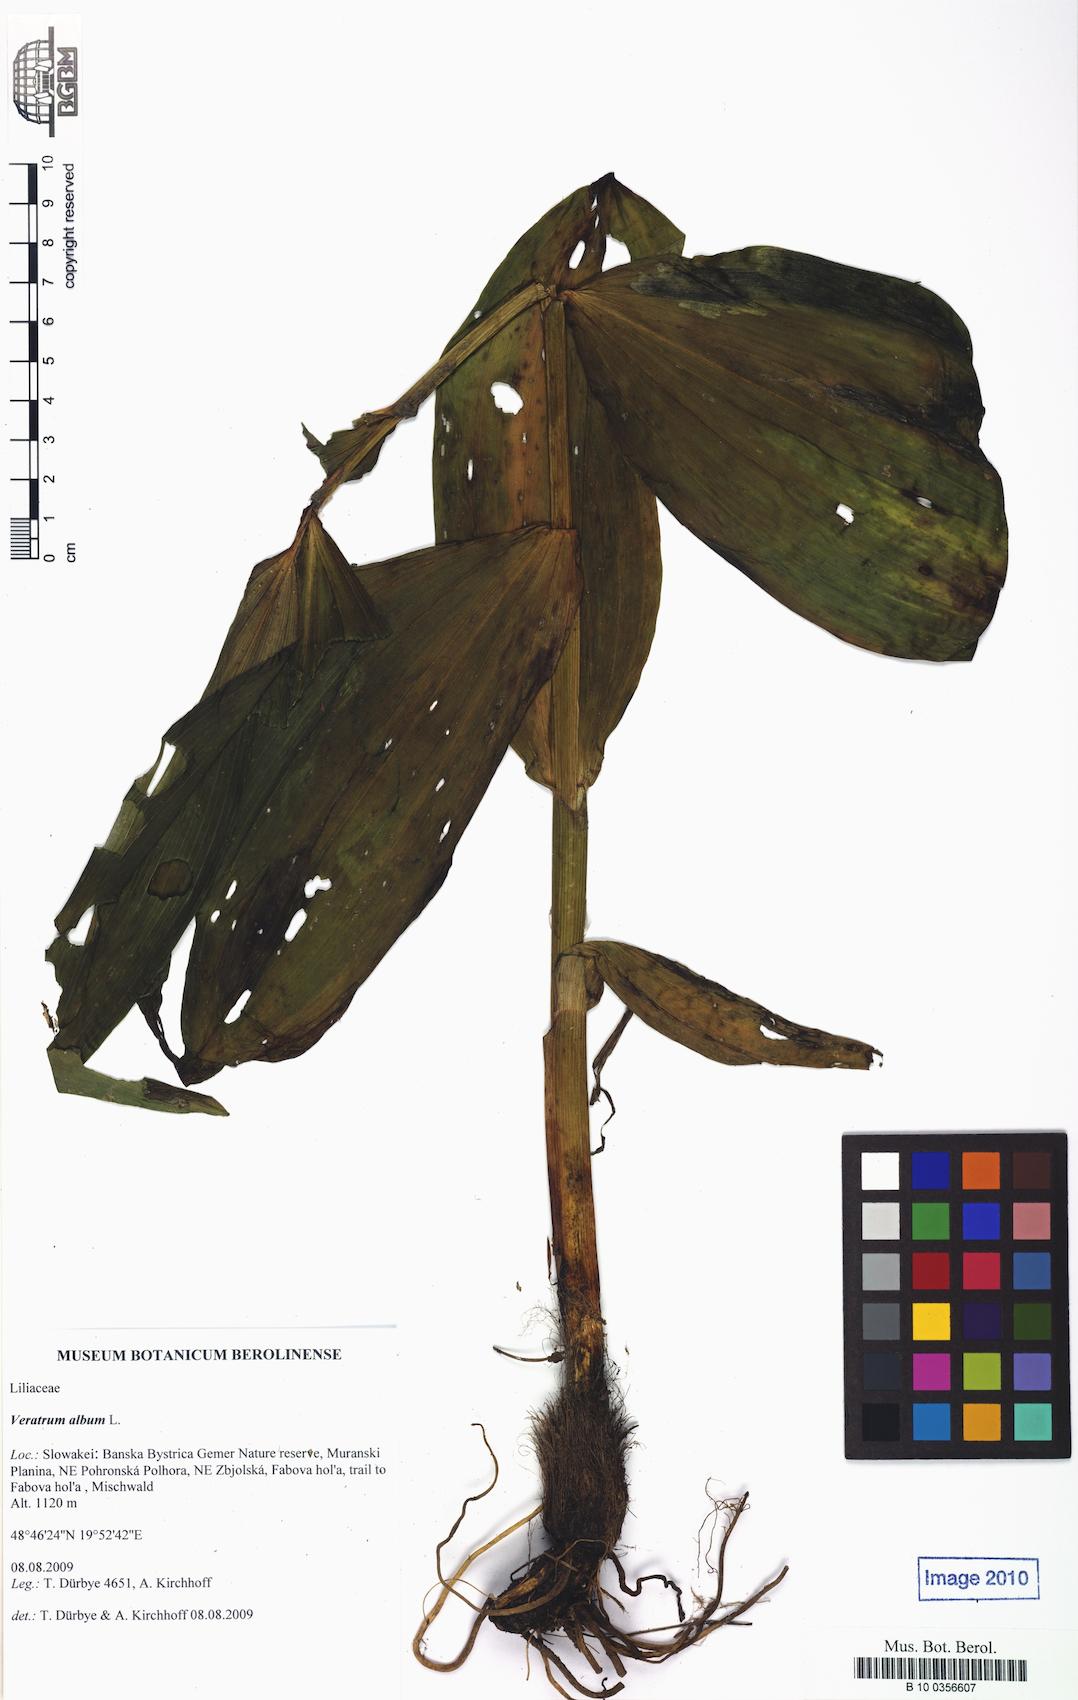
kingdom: Plantae
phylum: Tracheophyta
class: Liliopsida
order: Liliales
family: Melanthiaceae
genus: Veratrum
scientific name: Veratrum album
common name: White veratrum
